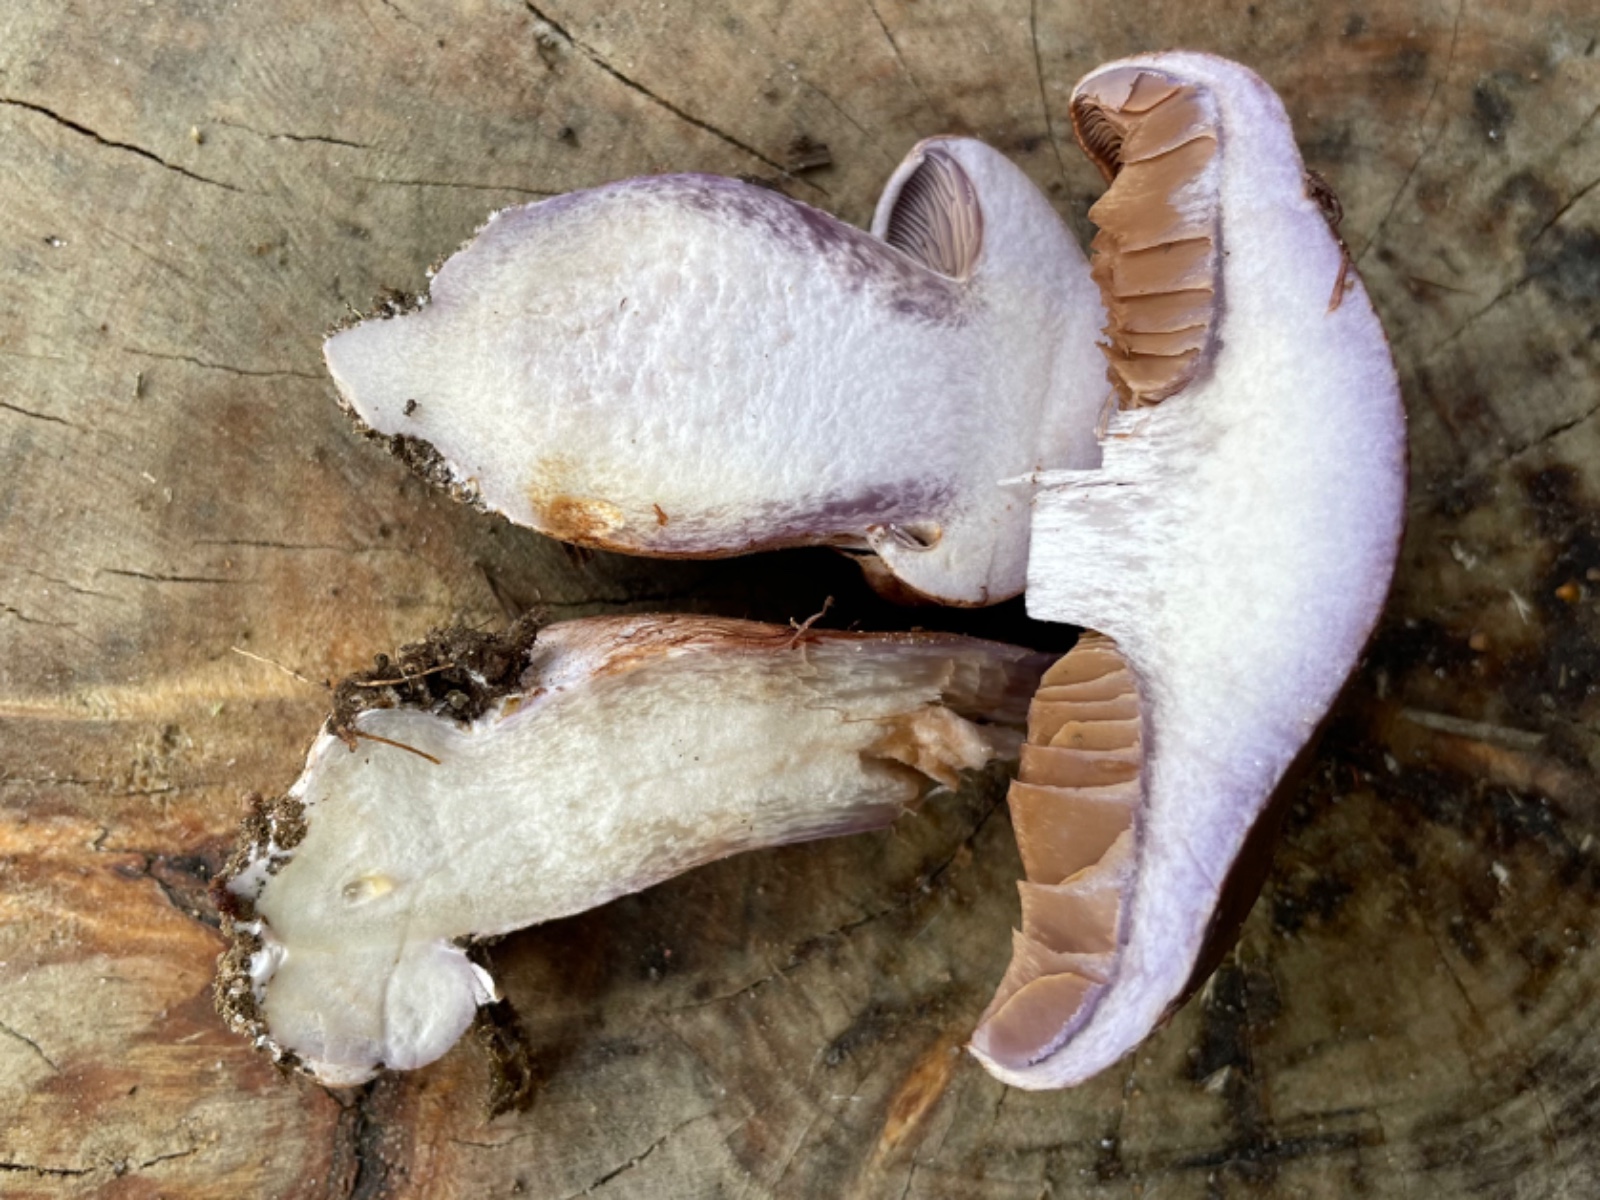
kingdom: Fungi
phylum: Basidiomycota
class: Agaricomycetes
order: Agaricales
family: Cortinariaceae
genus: Cortinarius
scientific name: Cortinarius variecolor
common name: violetagtig slørhat
